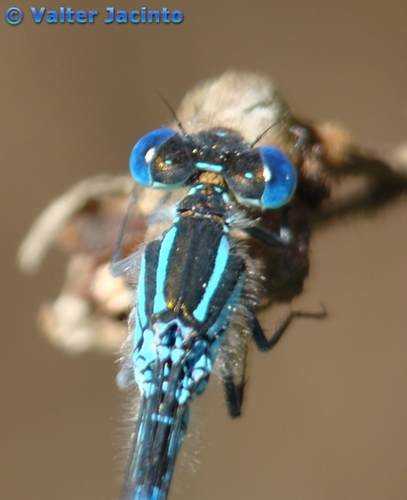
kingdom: Animalia
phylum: Arthropoda
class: Insecta
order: Odonata
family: Coenagrionidae
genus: Erythromma
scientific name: Erythromma lindenii
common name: Blue-eye
